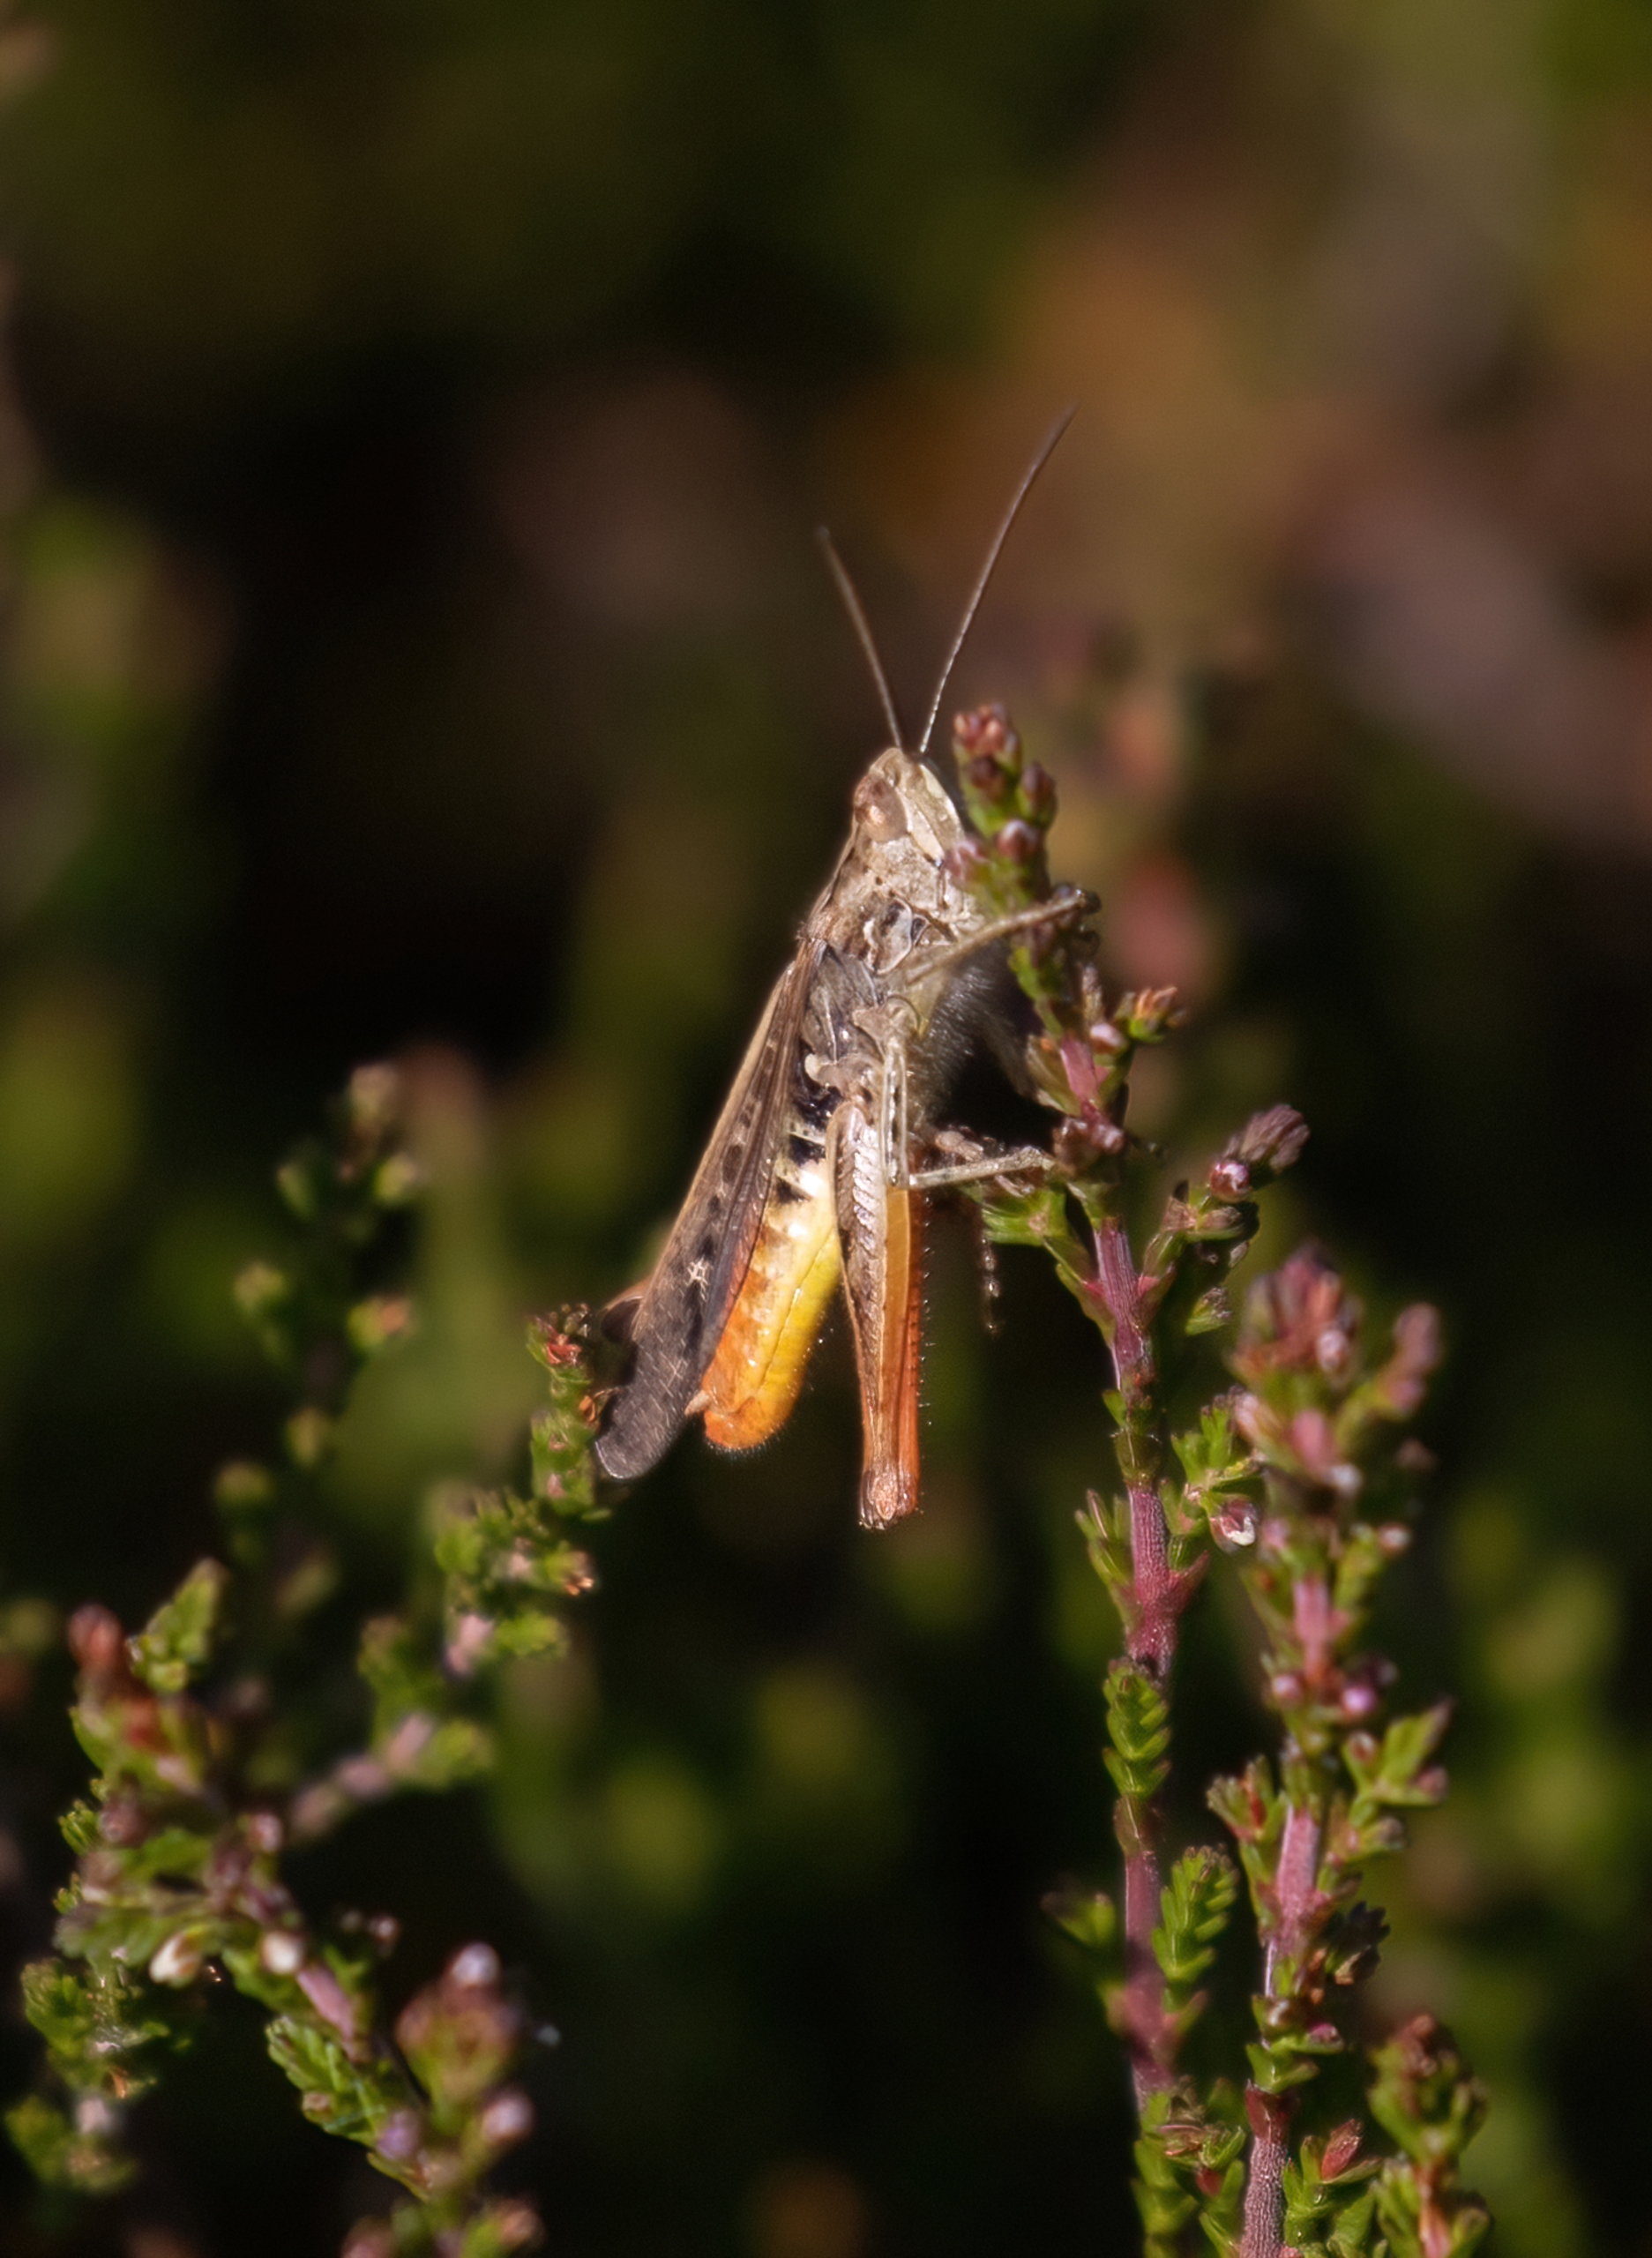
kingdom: Animalia
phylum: Arthropoda
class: Insecta
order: Orthoptera
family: Acrididae
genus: Chorthippus
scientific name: Chorthippus vagans
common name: Steppegræshoppe
